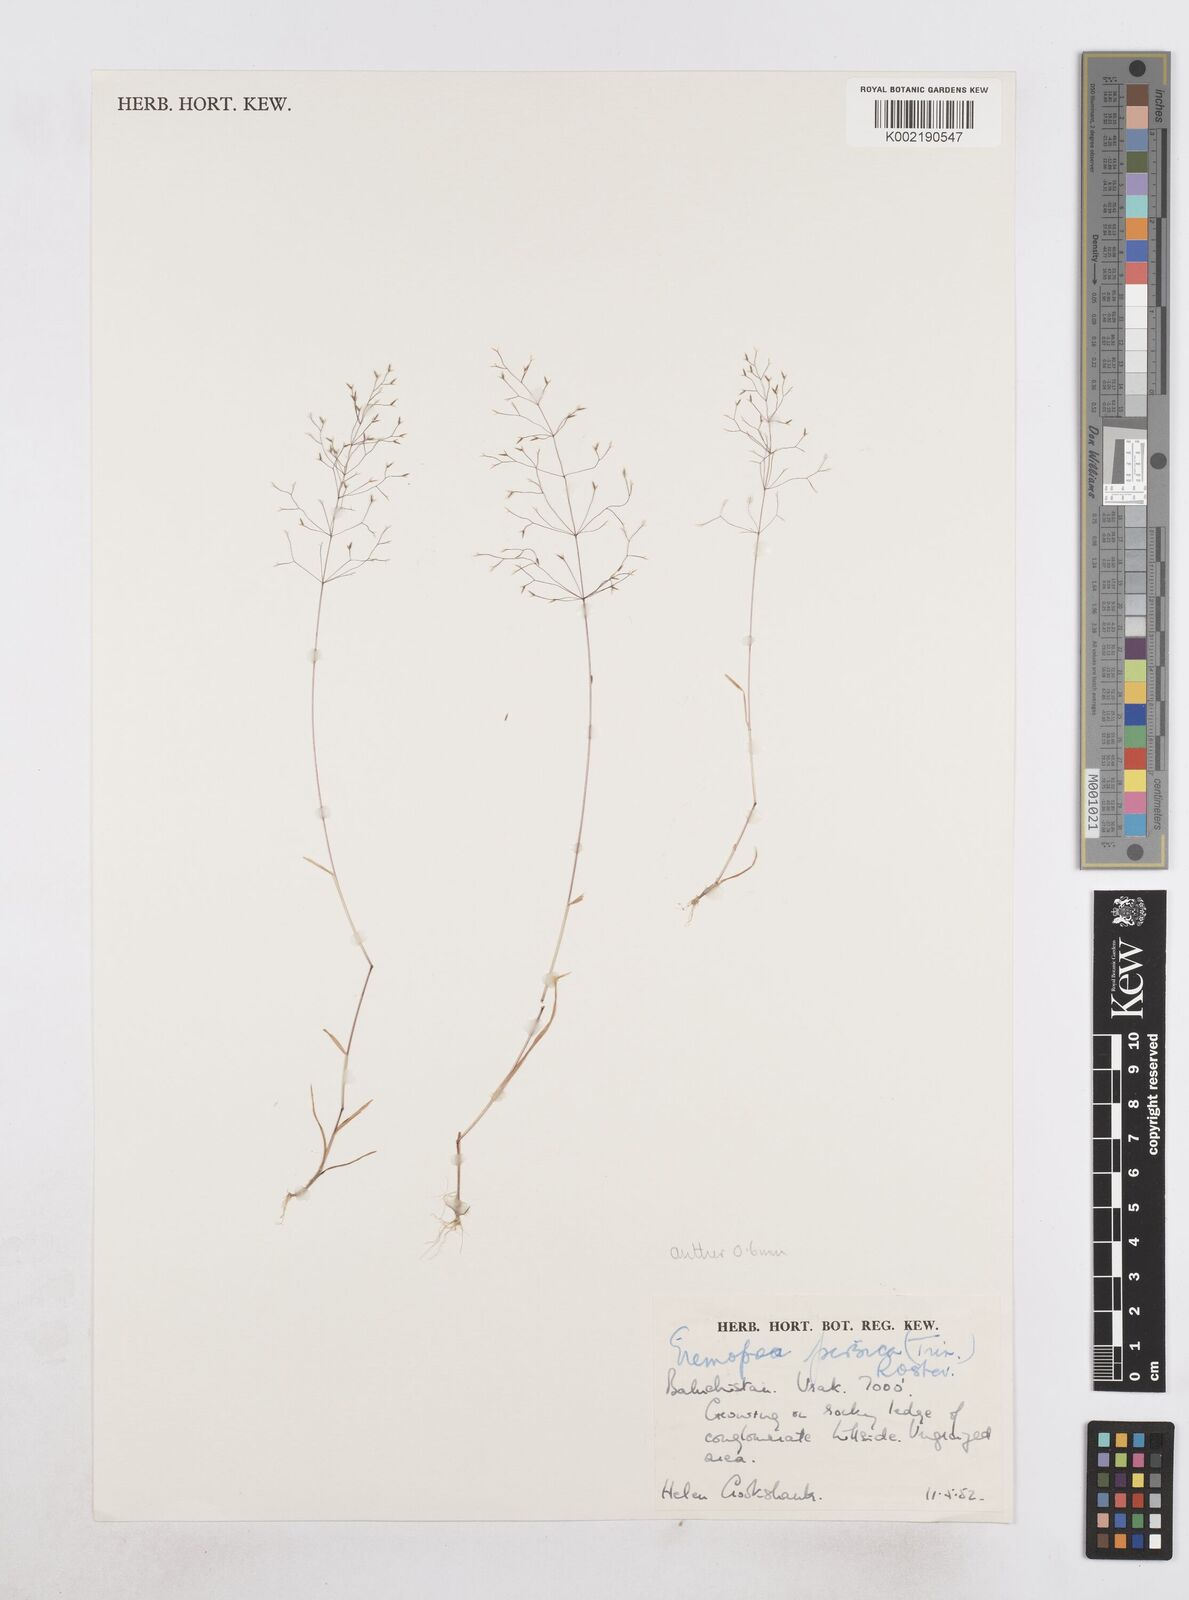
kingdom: Plantae
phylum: Tracheophyta
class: Liliopsida
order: Poales
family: Poaceae
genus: Poa
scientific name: Poa diaphora
